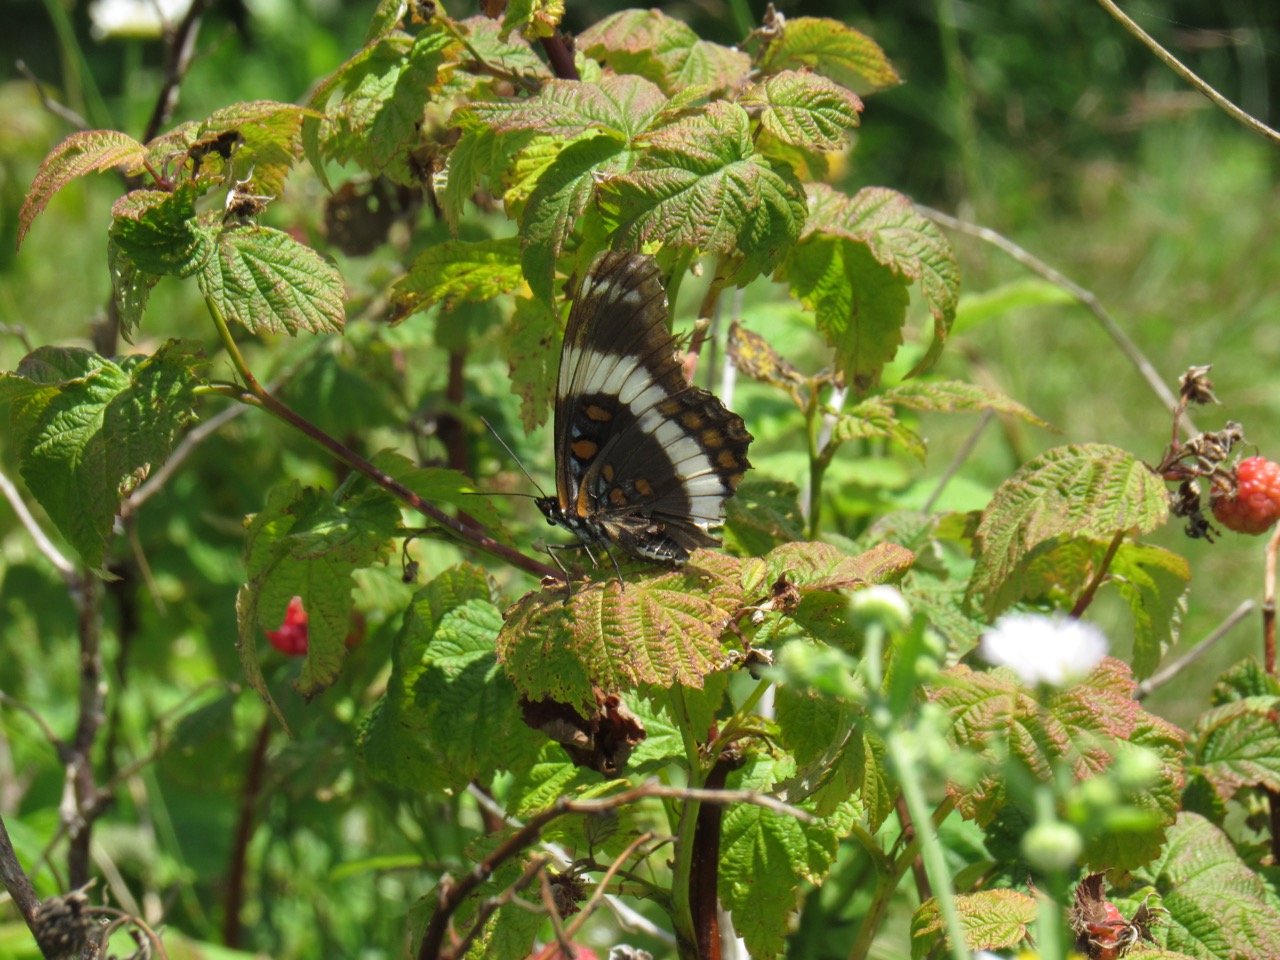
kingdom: Animalia
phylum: Arthropoda
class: Insecta
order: Lepidoptera
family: Nymphalidae
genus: Limenitis
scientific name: Limenitis arthemis
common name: Red-spotted Admiral
